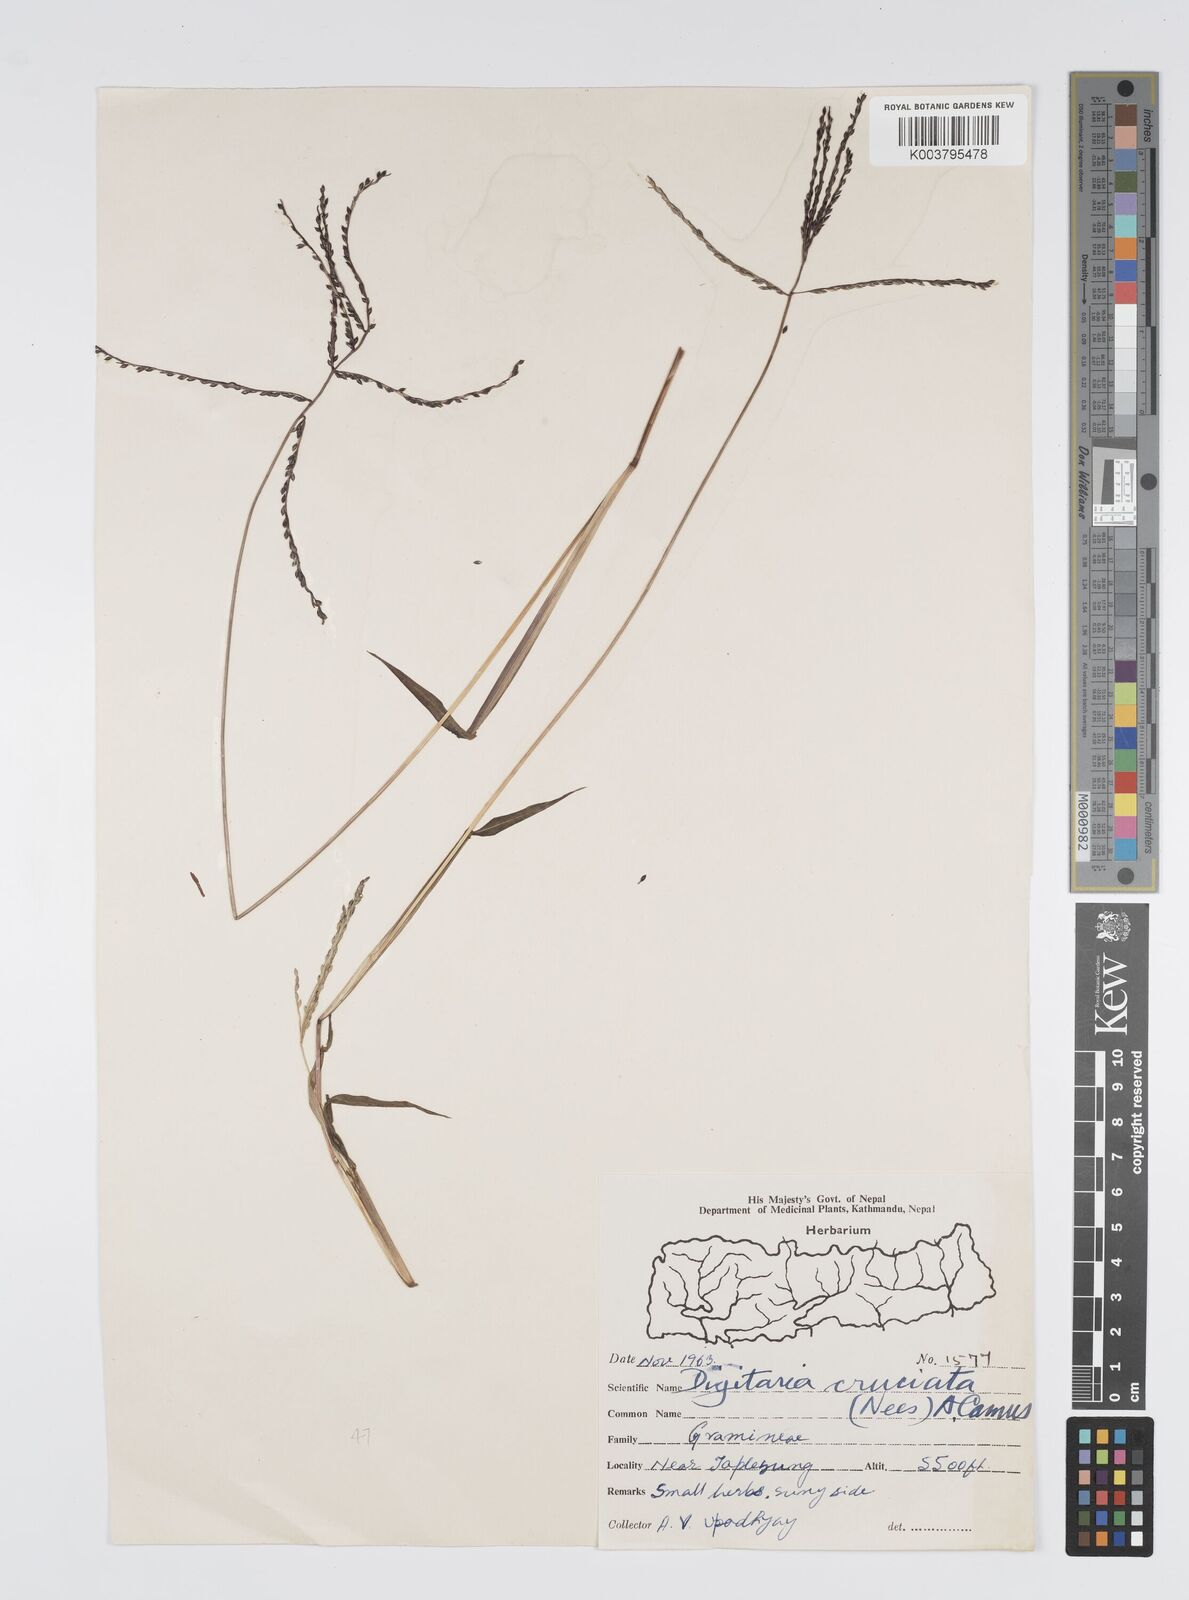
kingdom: Plantae
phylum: Tracheophyta
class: Liliopsida
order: Poales
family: Poaceae
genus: Digitaria
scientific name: Digitaria cruciata
